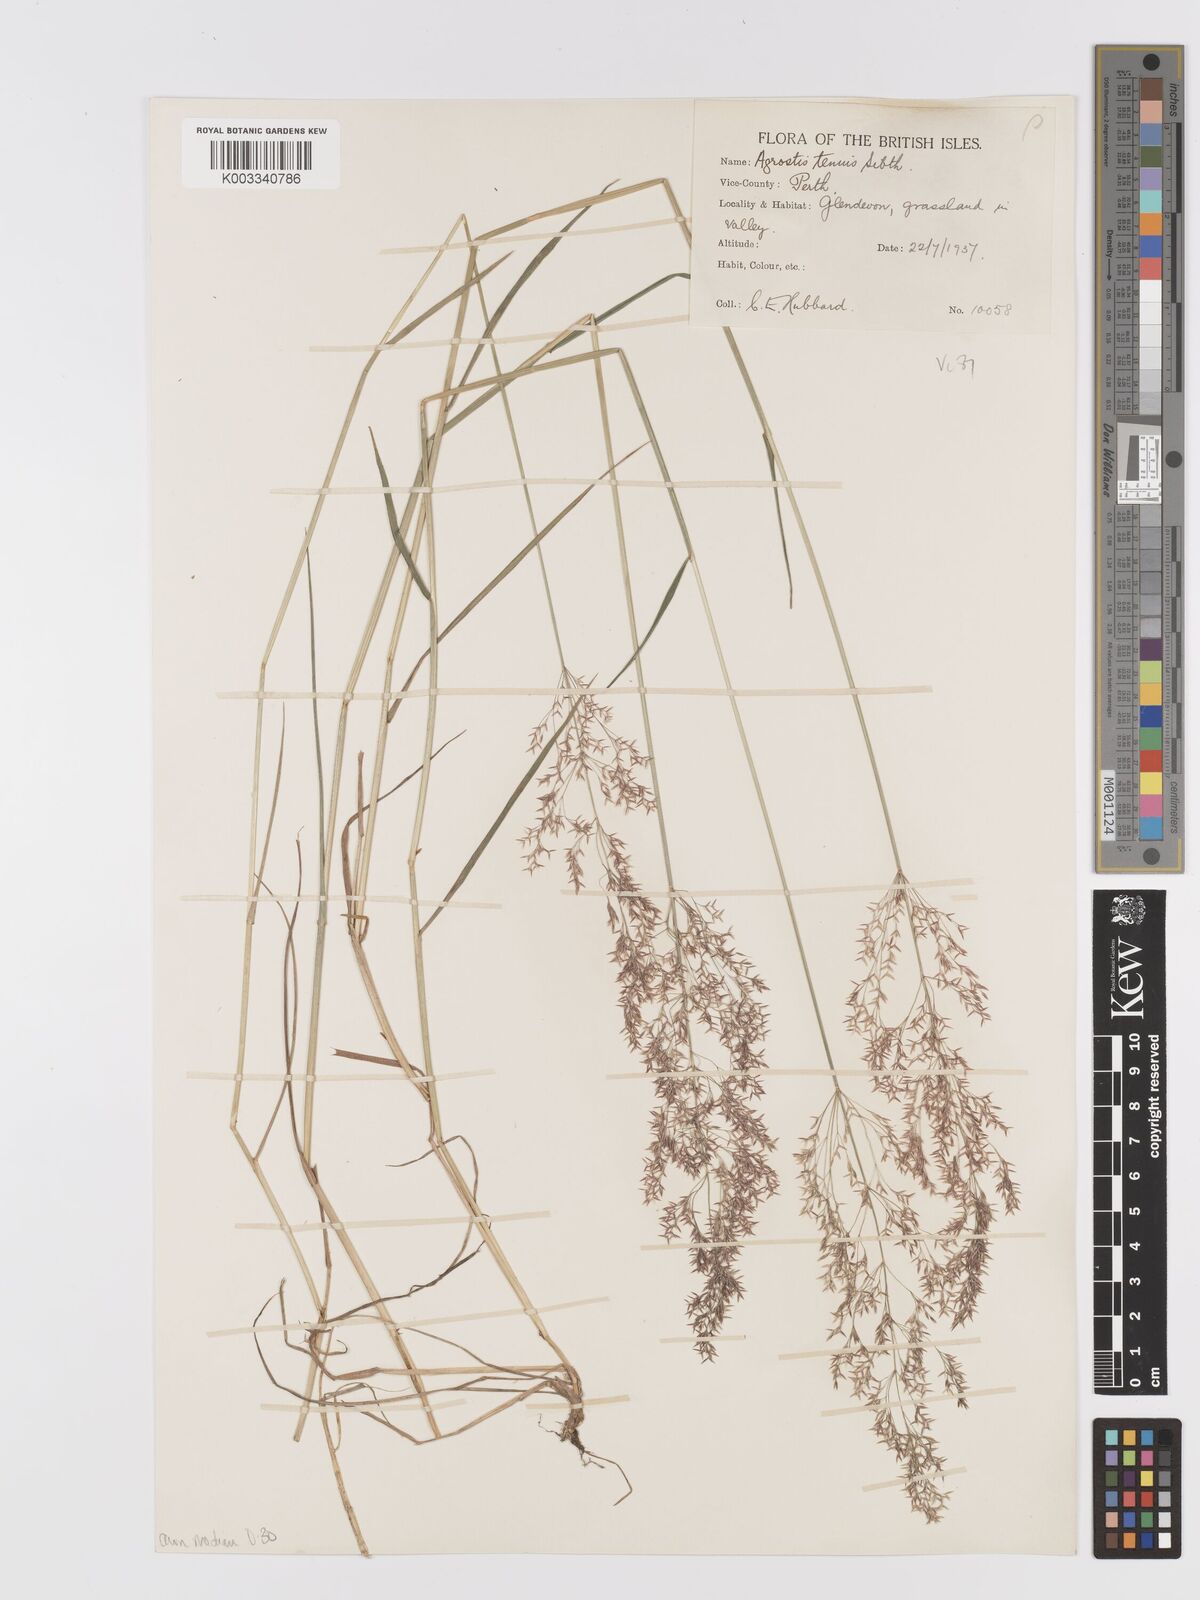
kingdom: Plantae
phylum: Tracheophyta
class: Liliopsida
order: Poales
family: Poaceae
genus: Agrostis
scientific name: Agrostis capillaris
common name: Colonial bentgrass
